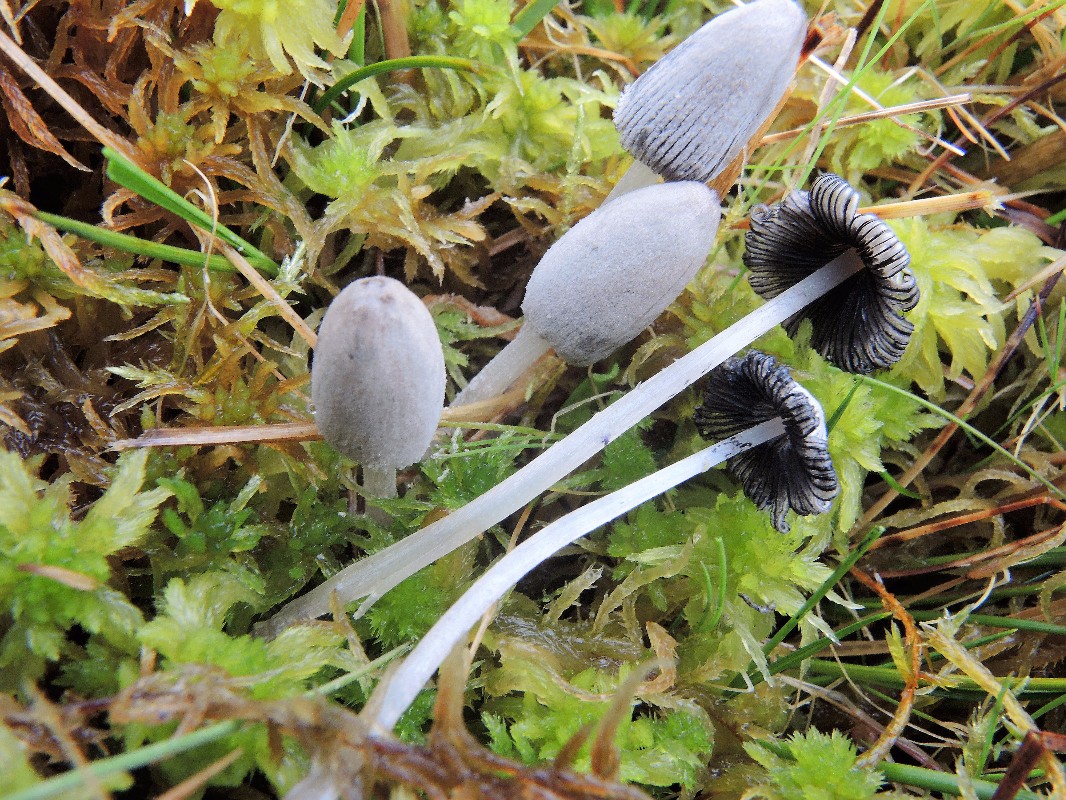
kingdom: Fungi
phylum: Basidiomycota
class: Agaricomycetes
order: Agaricales
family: Psathyrellaceae
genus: Coprinopsis
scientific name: Coprinopsis martinii
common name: rigkær-blækhat
